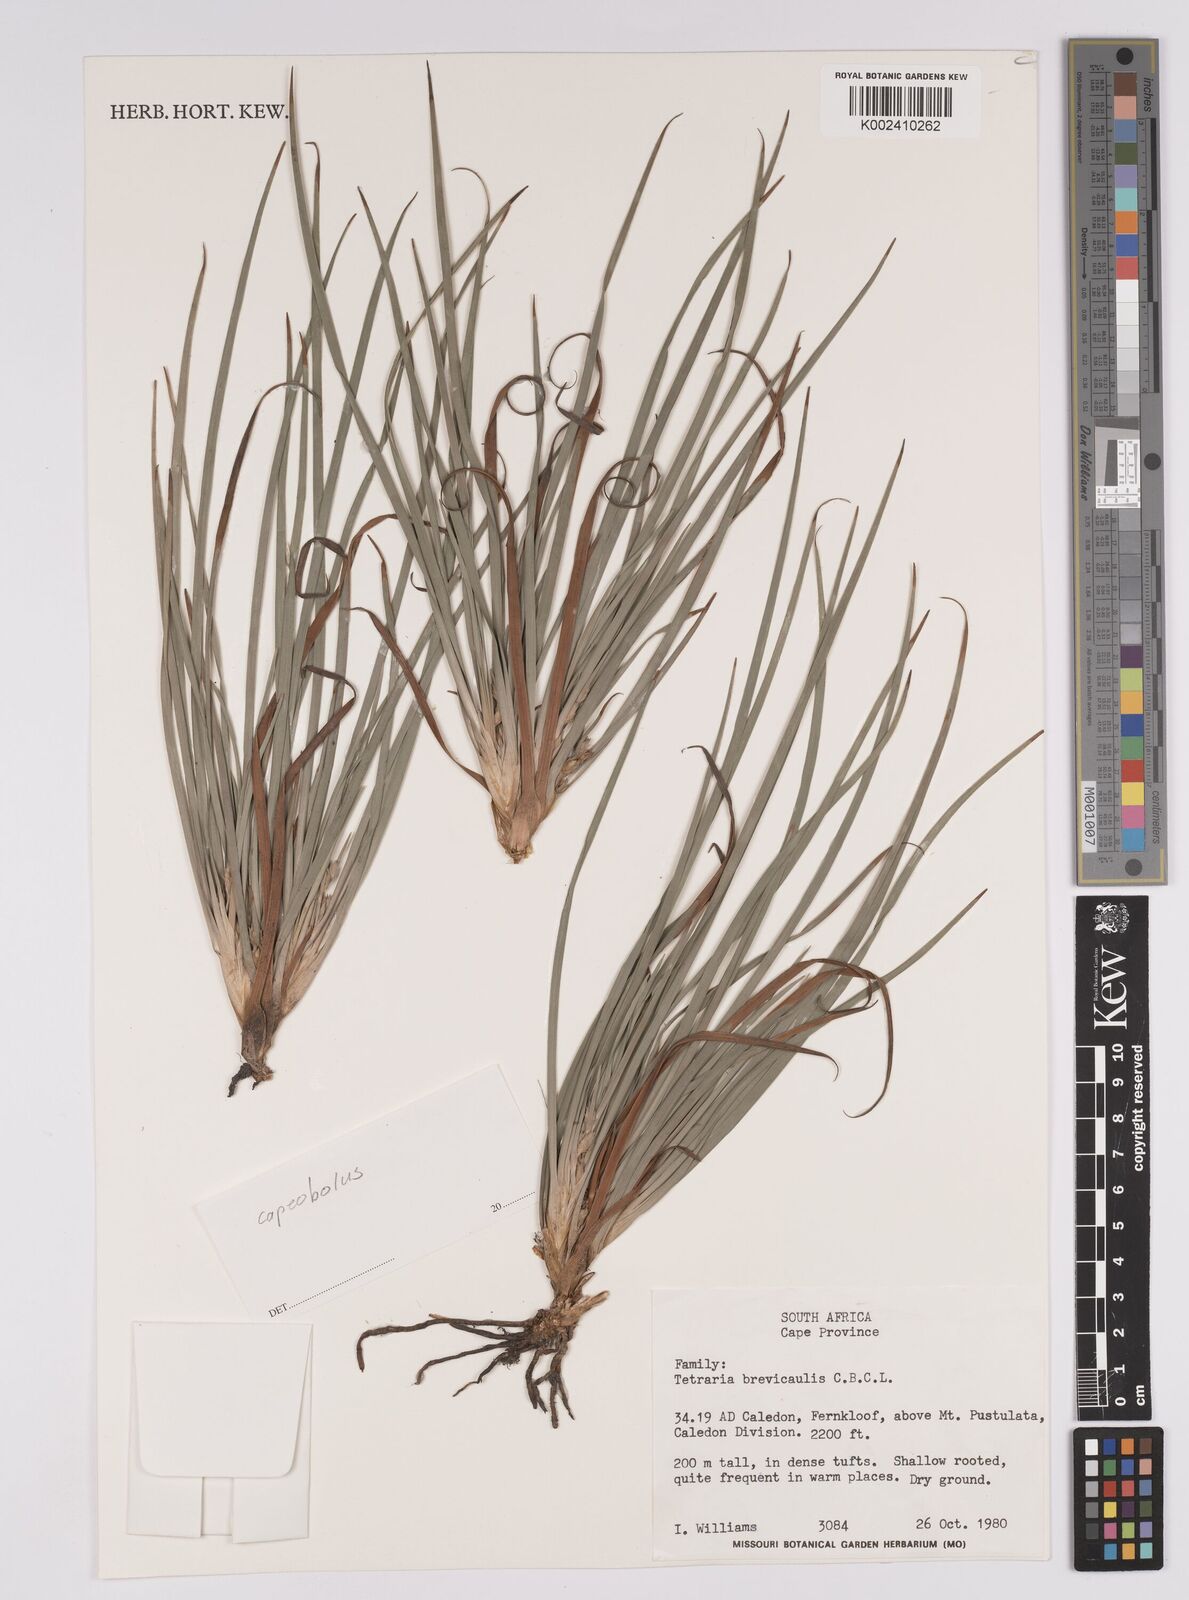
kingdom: Plantae
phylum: Tracheophyta
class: Liliopsida
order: Poales
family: Cyperaceae
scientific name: Cyperaceae
